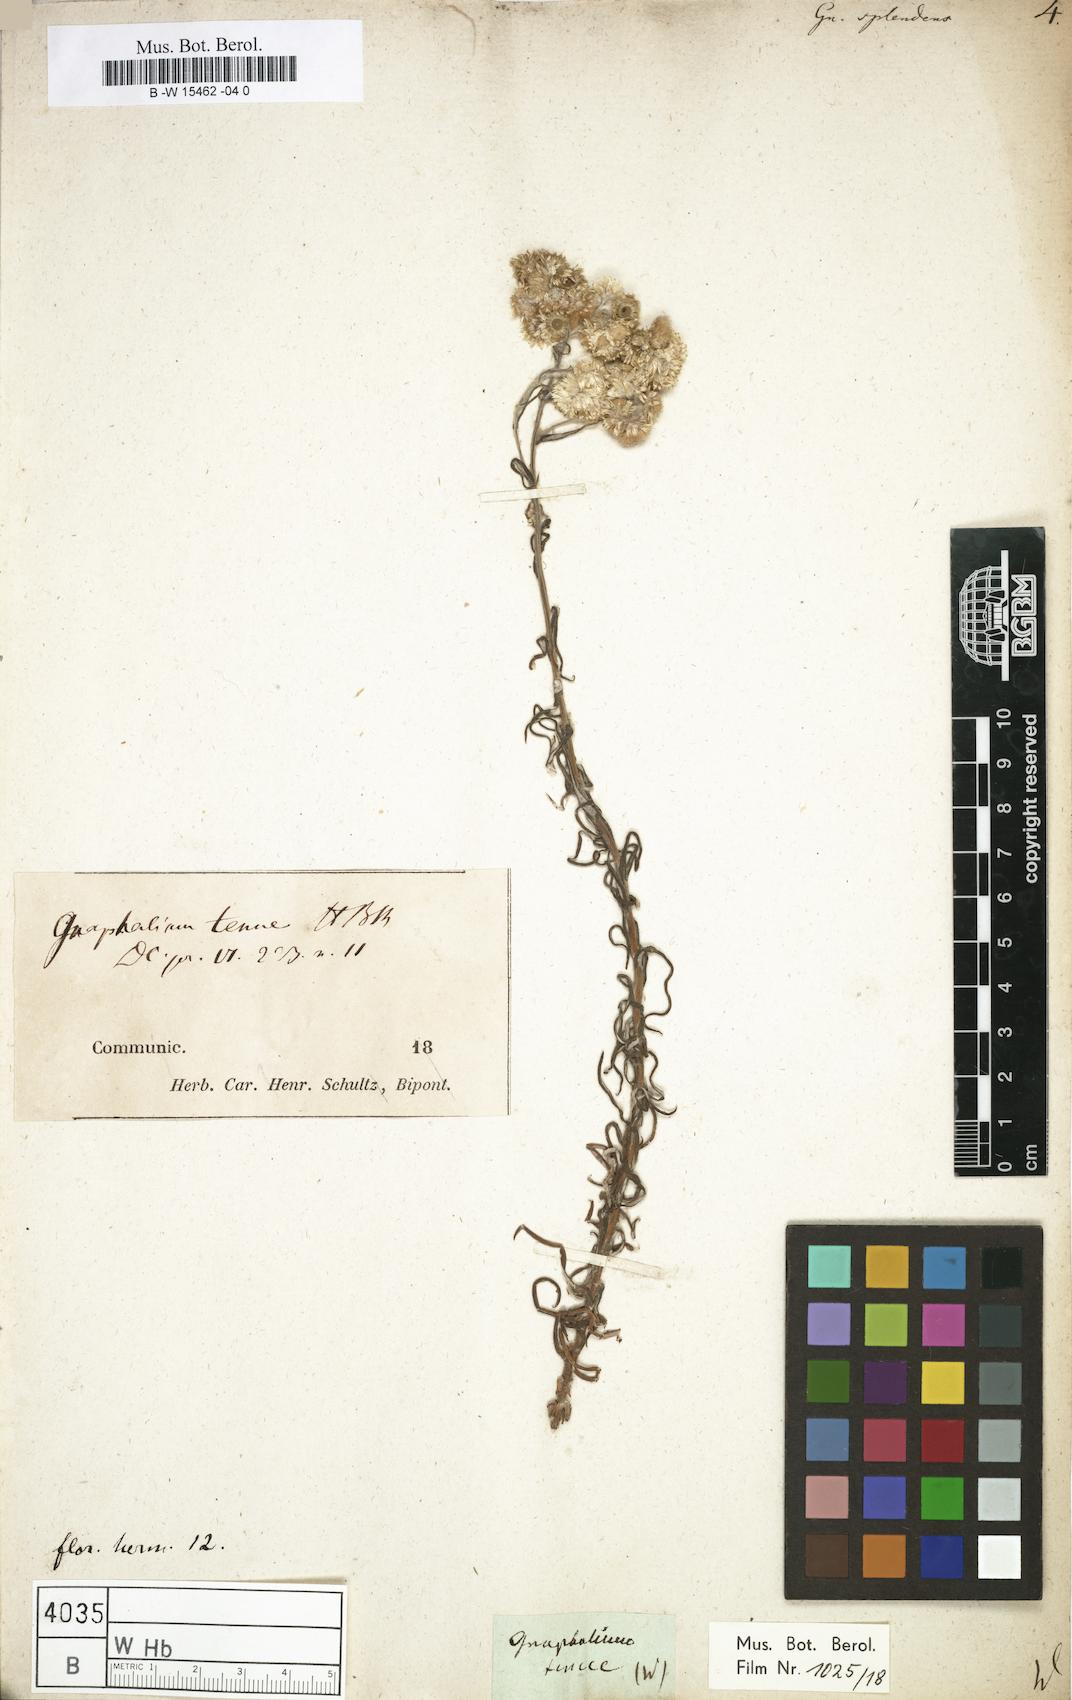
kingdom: Plantae
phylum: Tracheophyta
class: Magnoliopsida
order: Asterales
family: Asteraceae
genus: Gnaphalium
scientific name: Gnaphalium splendens
